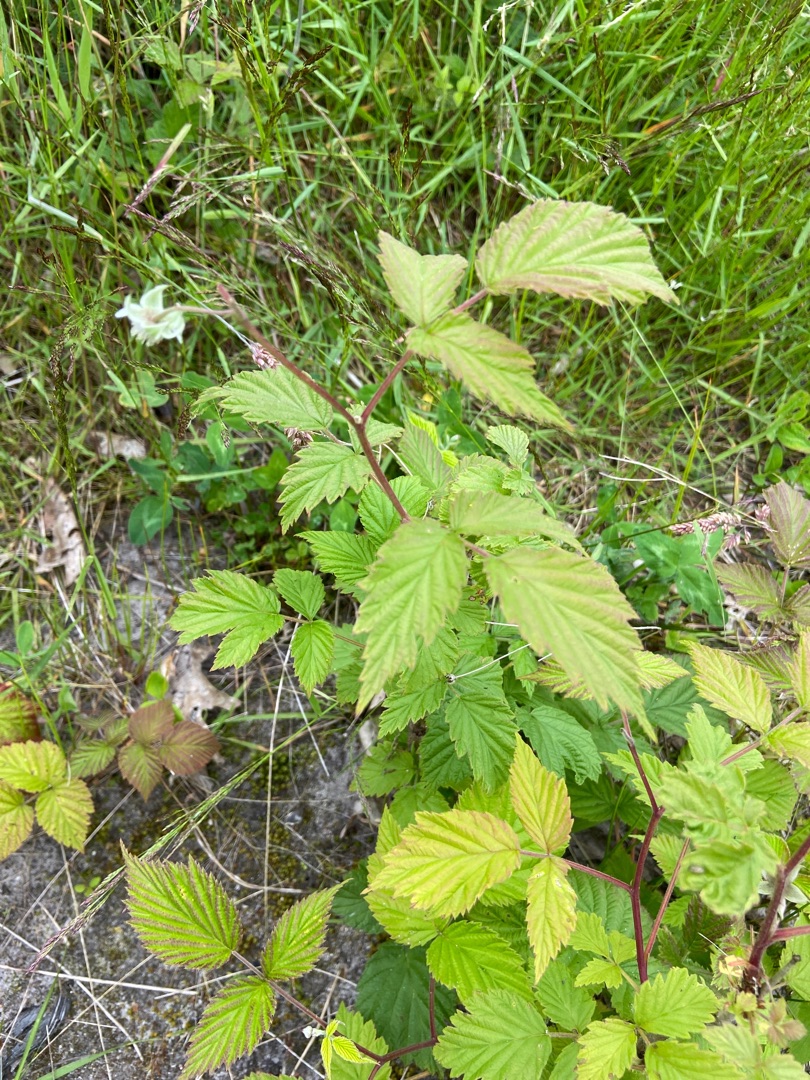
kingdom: Plantae
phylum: Tracheophyta
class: Magnoliopsida
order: Rosales
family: Rosaceae
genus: Rubus
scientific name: Rubus idaeus
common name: Hindbær
